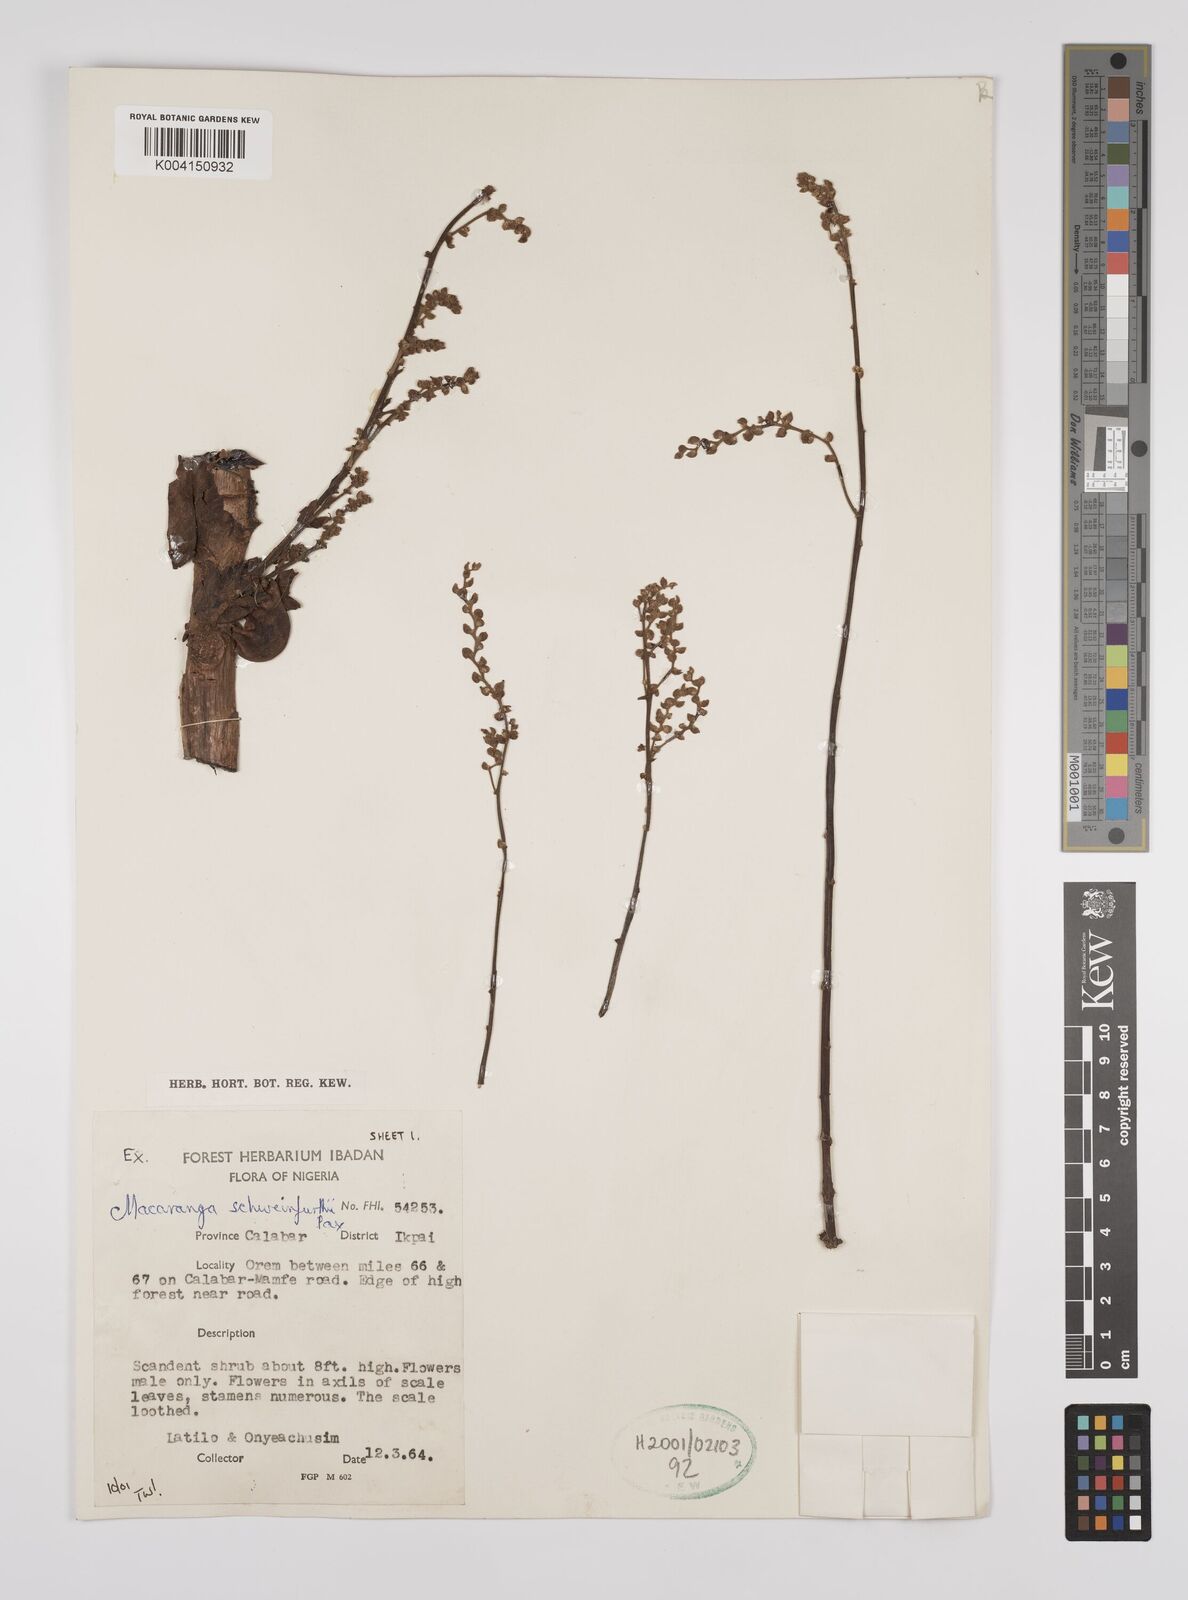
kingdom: Plantae
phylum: Tracheophyta
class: Magnoliopsida
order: Malpighiales
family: Euphorbiaceae
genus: Macaranga
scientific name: Macaranga schweinfurthii
